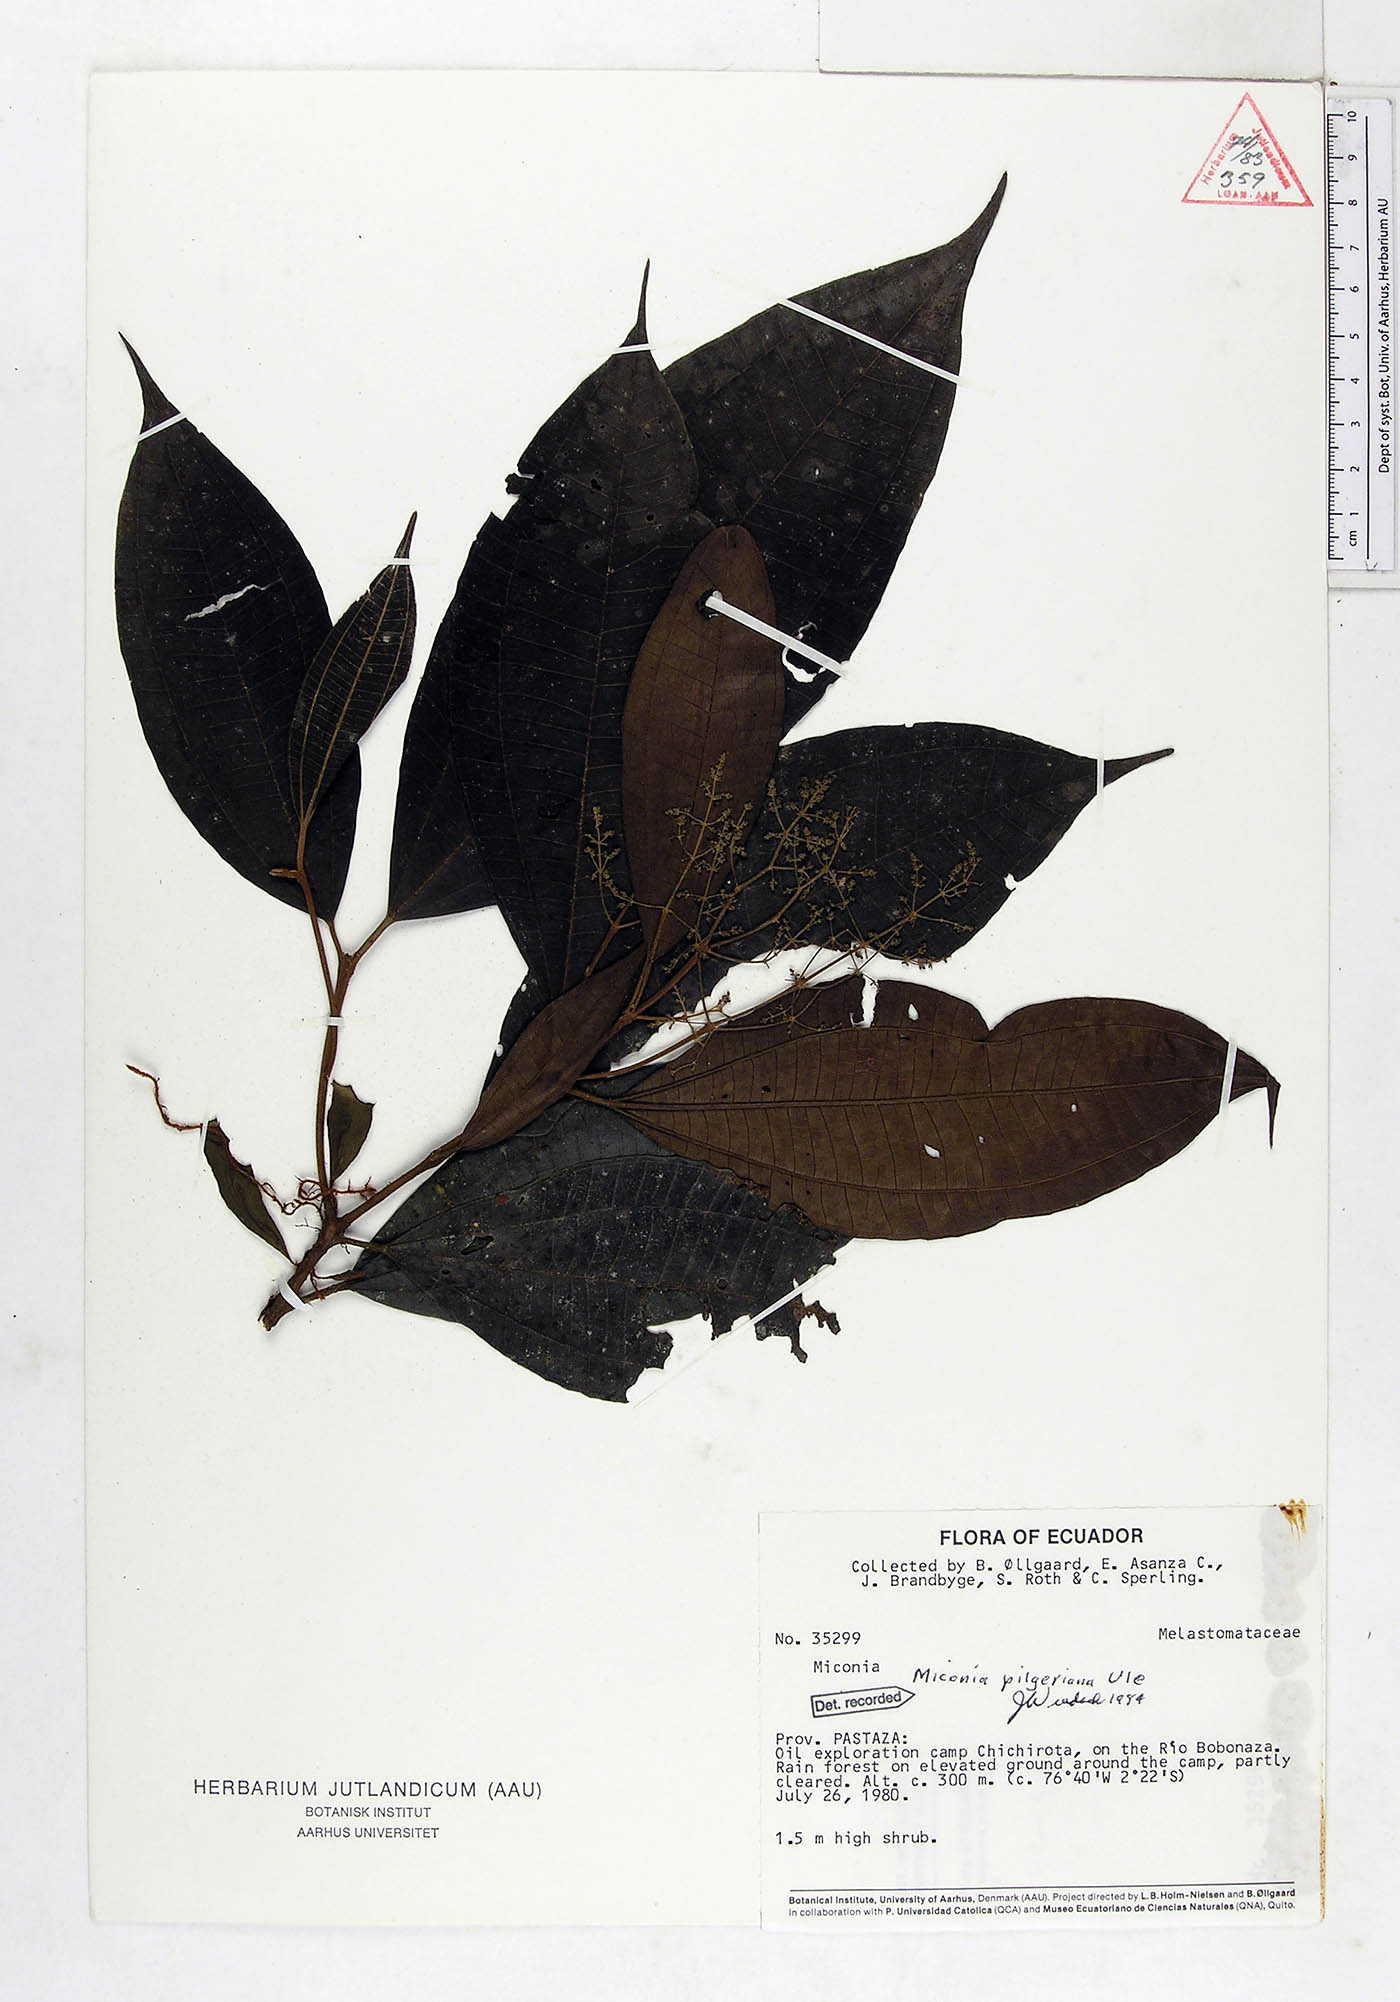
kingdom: Plantae
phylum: Tracheophyta
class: Magnoliopsida
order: Myrtales
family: Melastomataceae
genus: Miconia
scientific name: Miconia dolichorrhyncha
